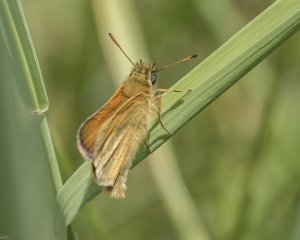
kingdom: Animalia
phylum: Arthropoda
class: Insecta
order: Lepidoptera
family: Hesperiidae
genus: Thymelicus
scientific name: Thymelicus lineola
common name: European Skipper
